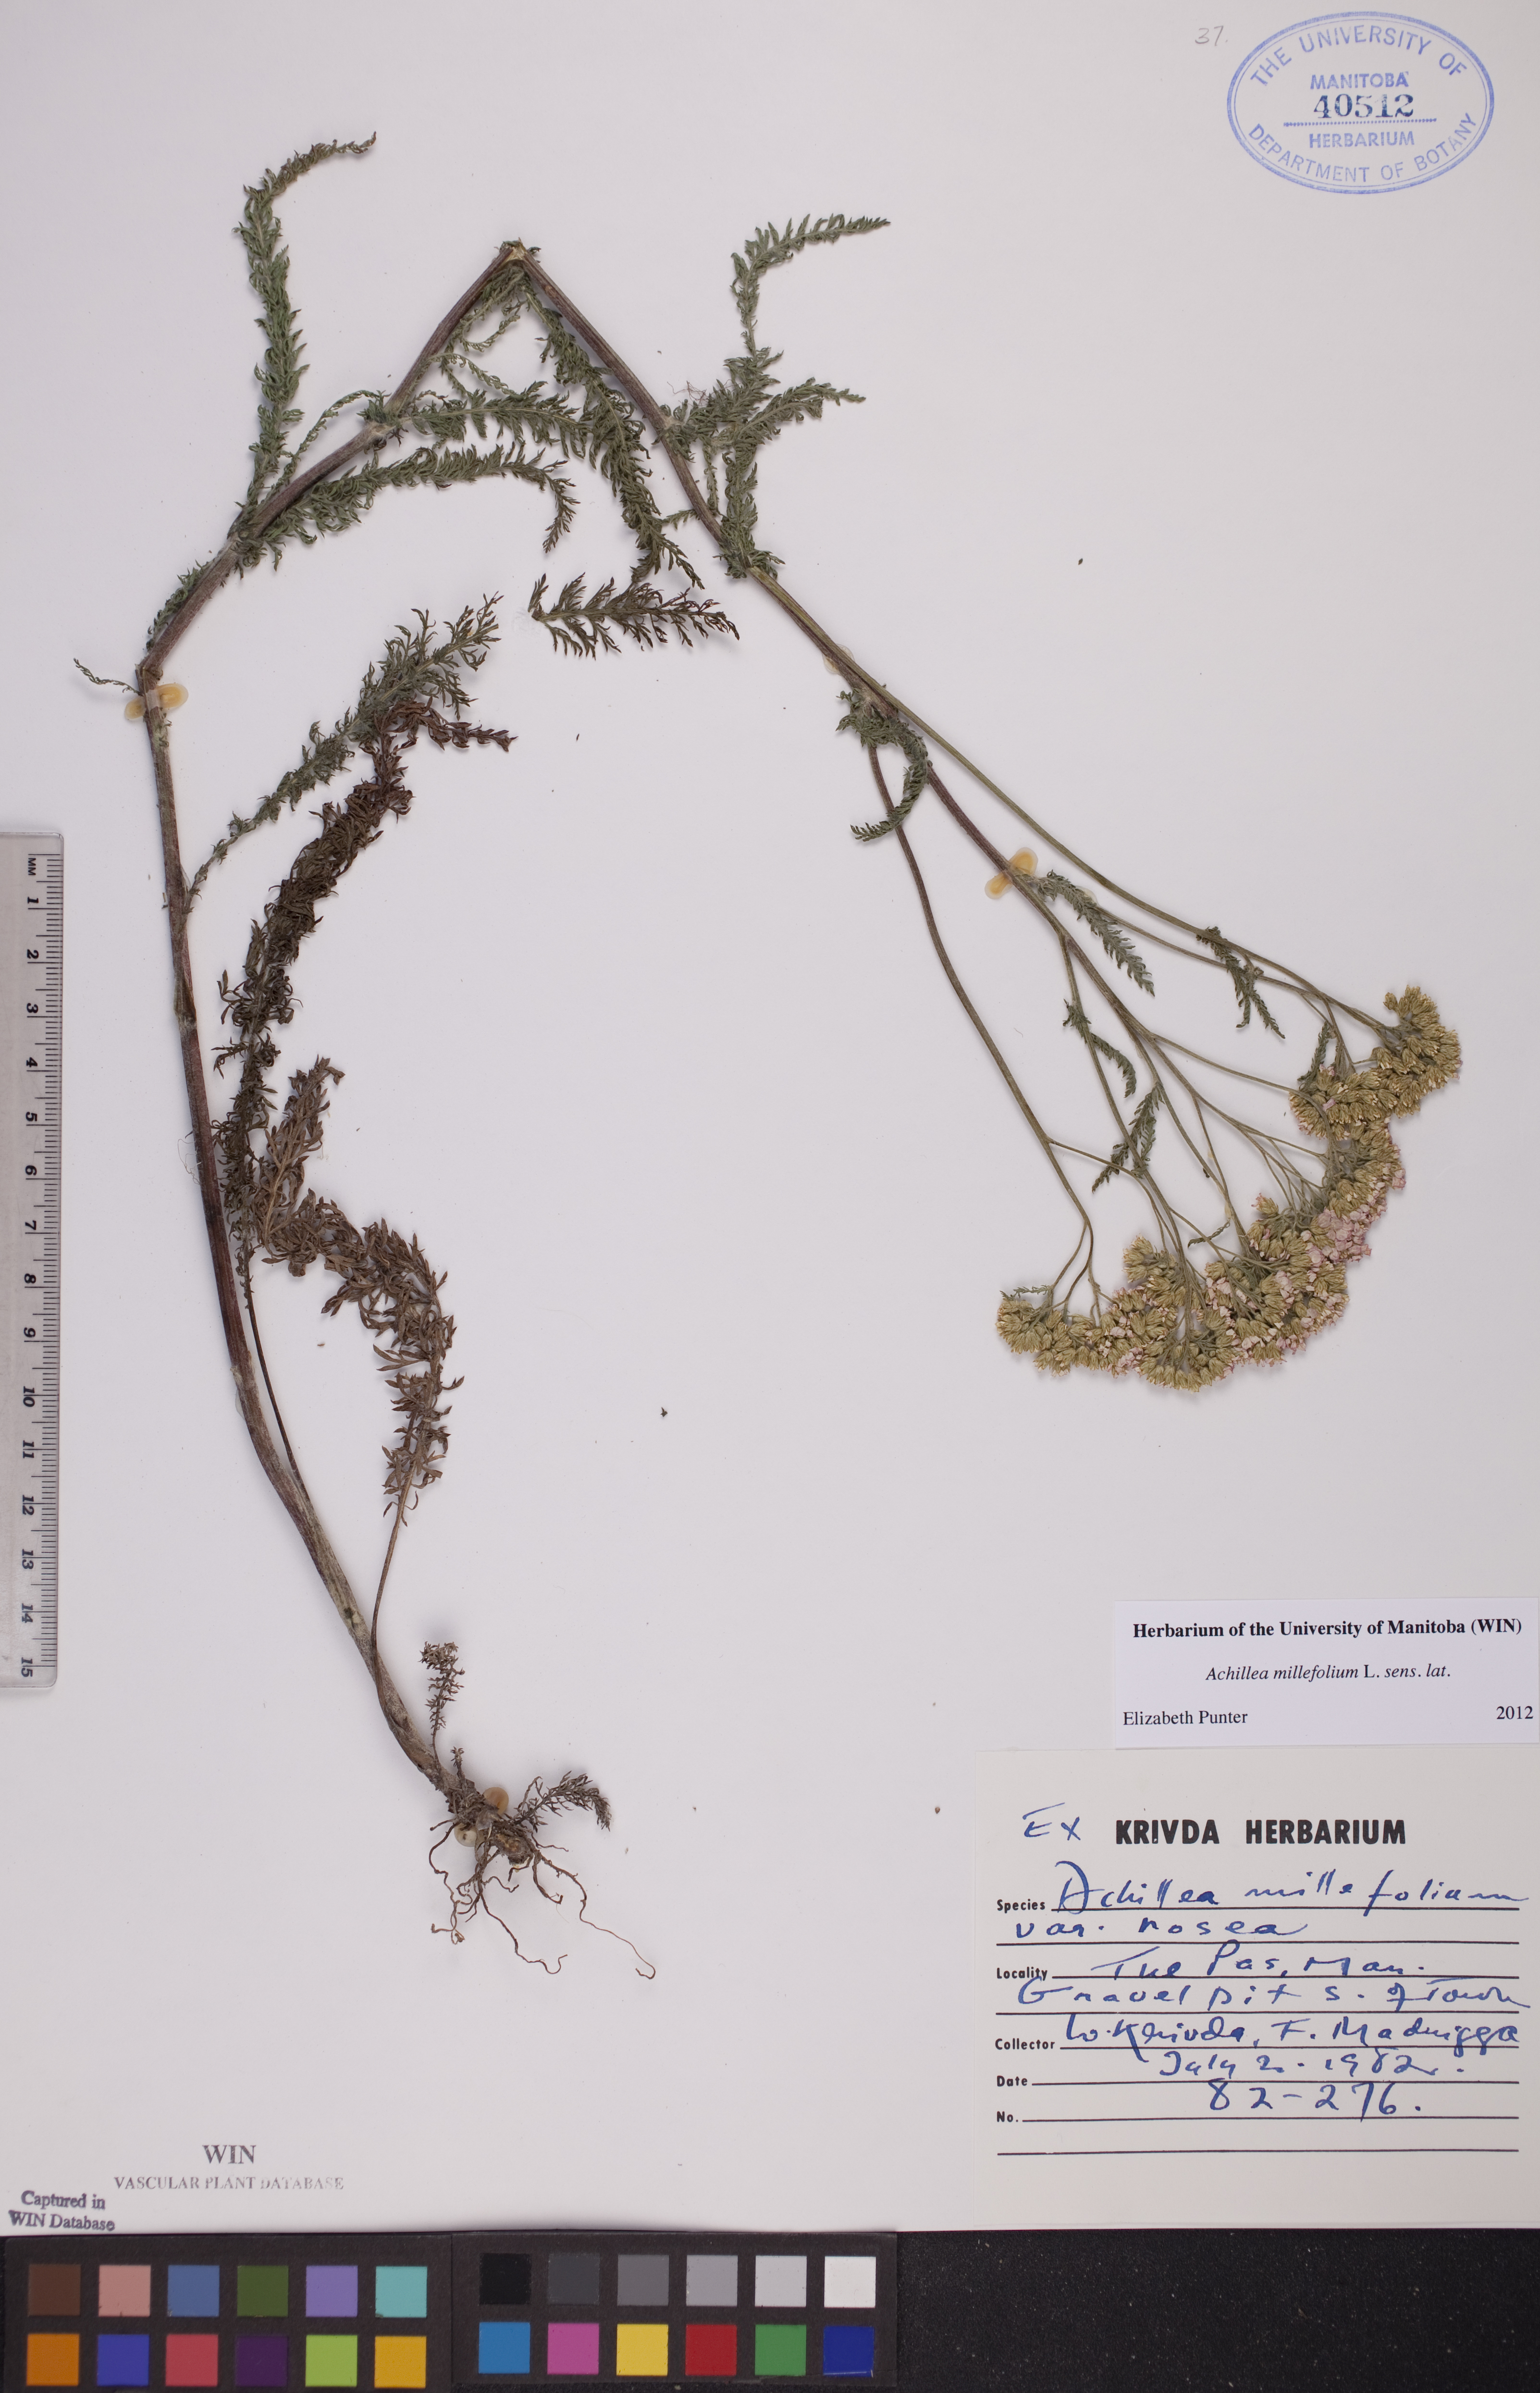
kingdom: Plantae
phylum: Tracheophyta
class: Magnoliopsida
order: Asterales
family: Asteraceae
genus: Achillea
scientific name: Achillea millefolium
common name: Yarrow
